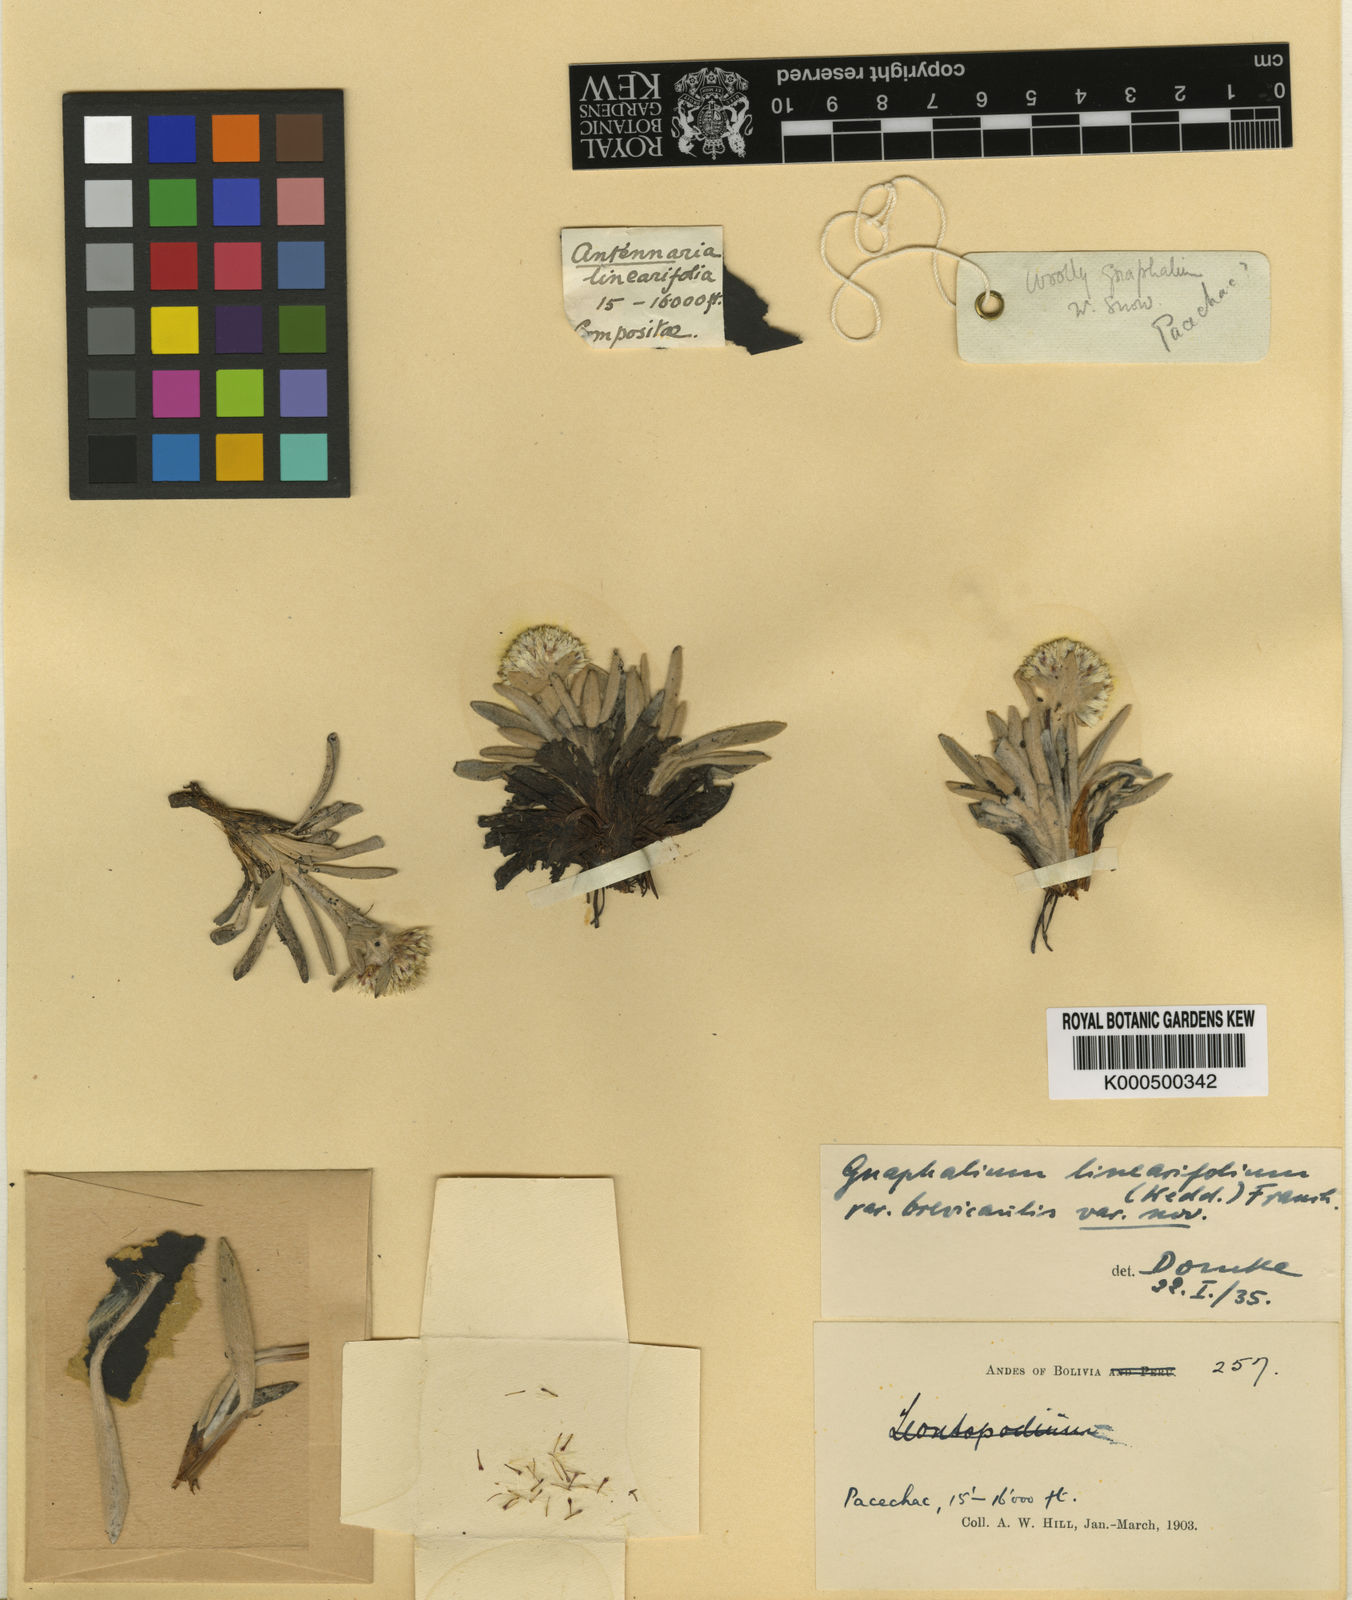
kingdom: Plantae
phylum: Tracheophyta
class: Magnoliopsida
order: Asterales
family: Asteraceae
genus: Quasiantennaria
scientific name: Quasiantennaria linearifolia
